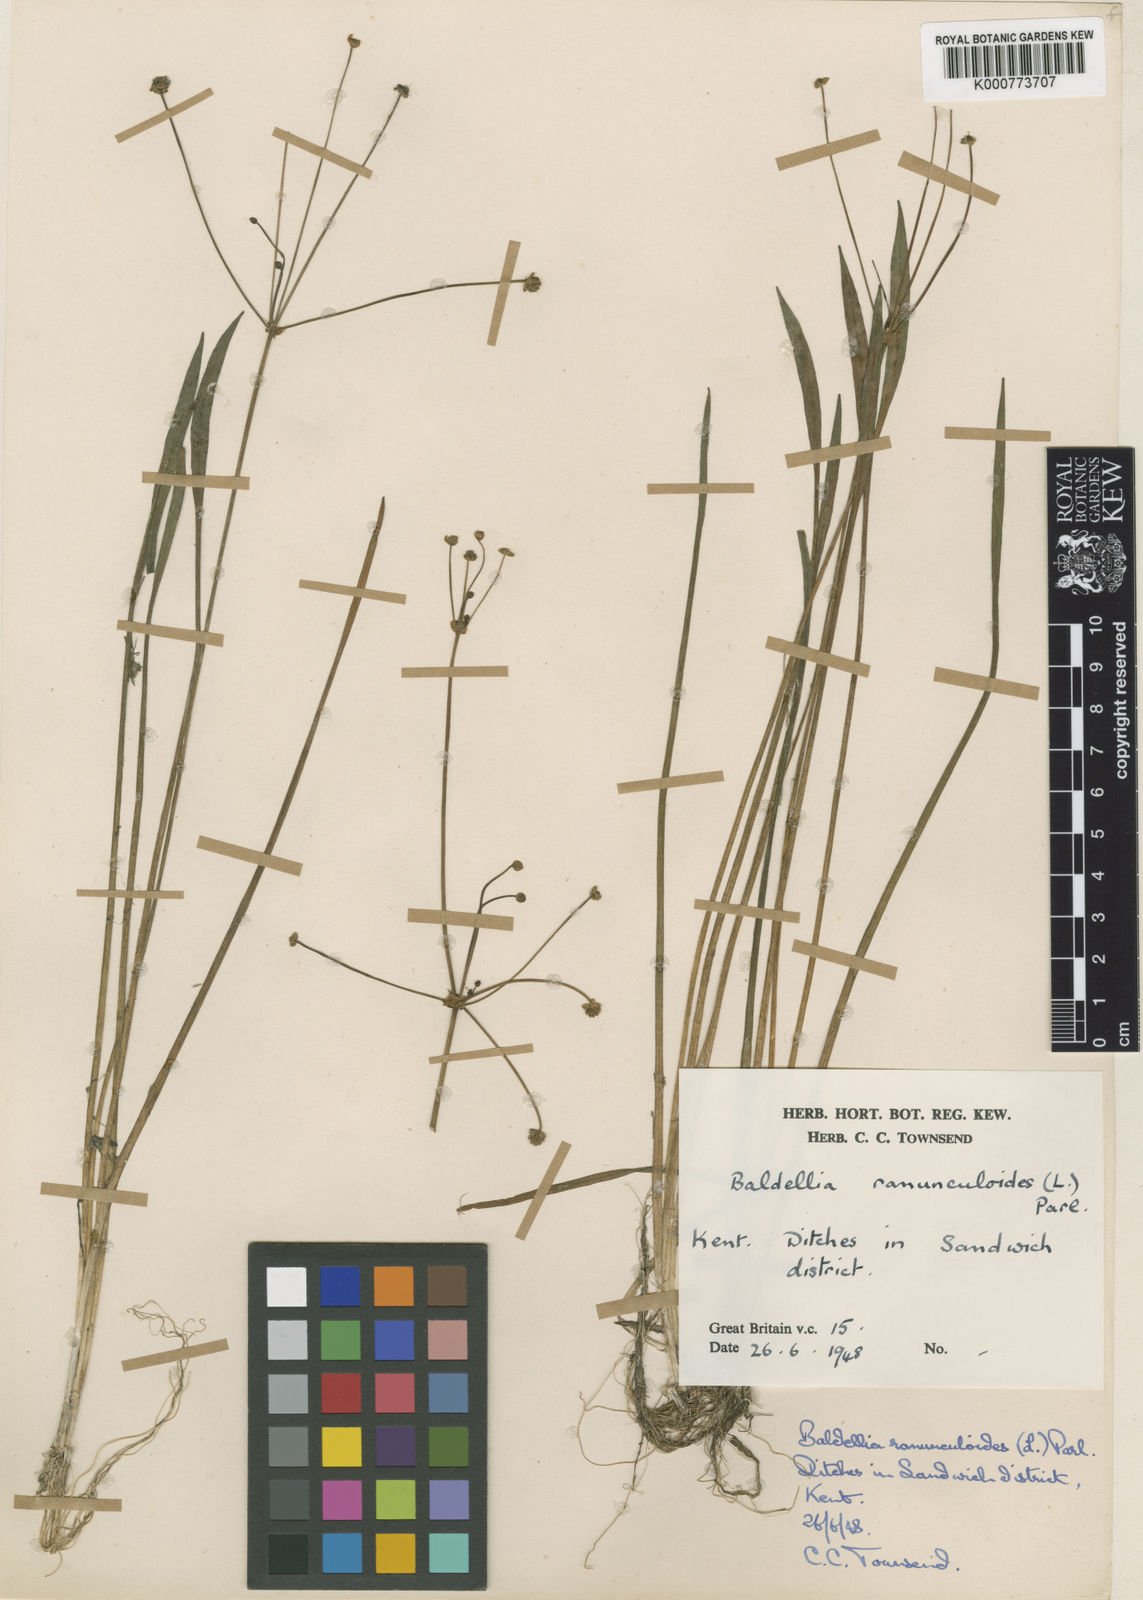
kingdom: Plantae
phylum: Tracheophyta
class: Liliopsida
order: Alismatales
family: Alismataceae
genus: Baldellia
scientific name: Baldellia ranunculoides
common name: Lesser water-plantain
